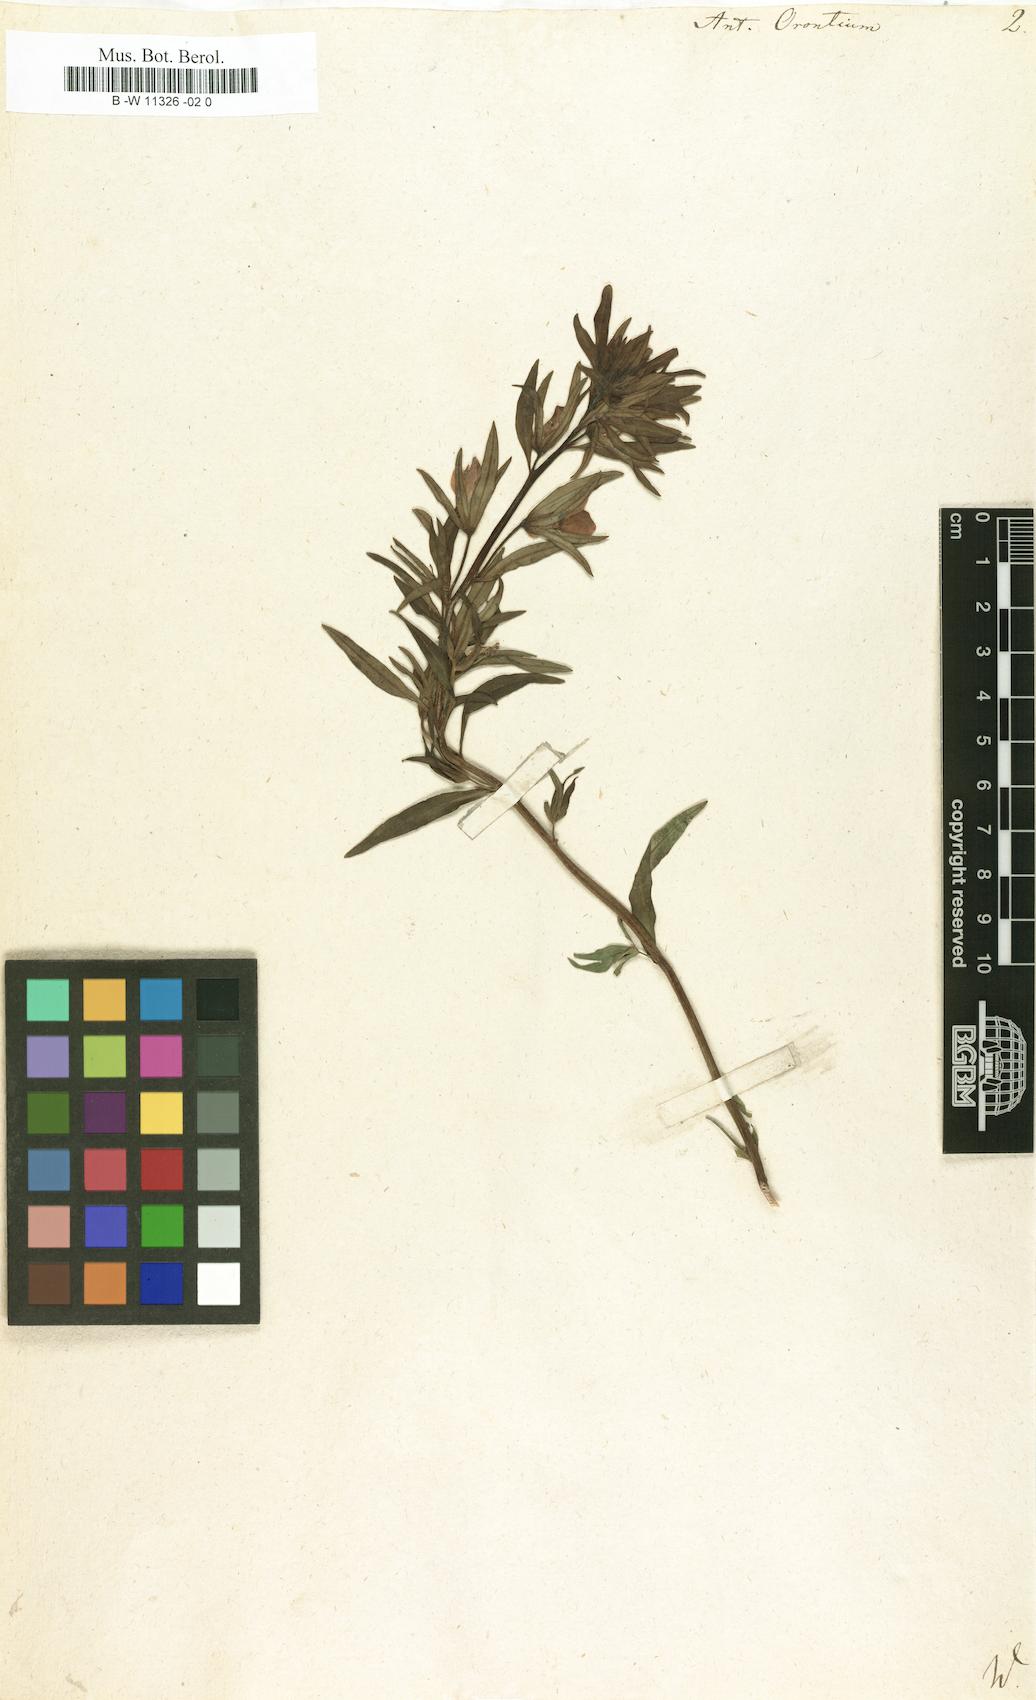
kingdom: Plantae
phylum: Tracheophyta
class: Magnoliopsida
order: Lamiales
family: Plantaginaceae
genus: Misopates
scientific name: Misopates orontium
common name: Weasel's-snout
